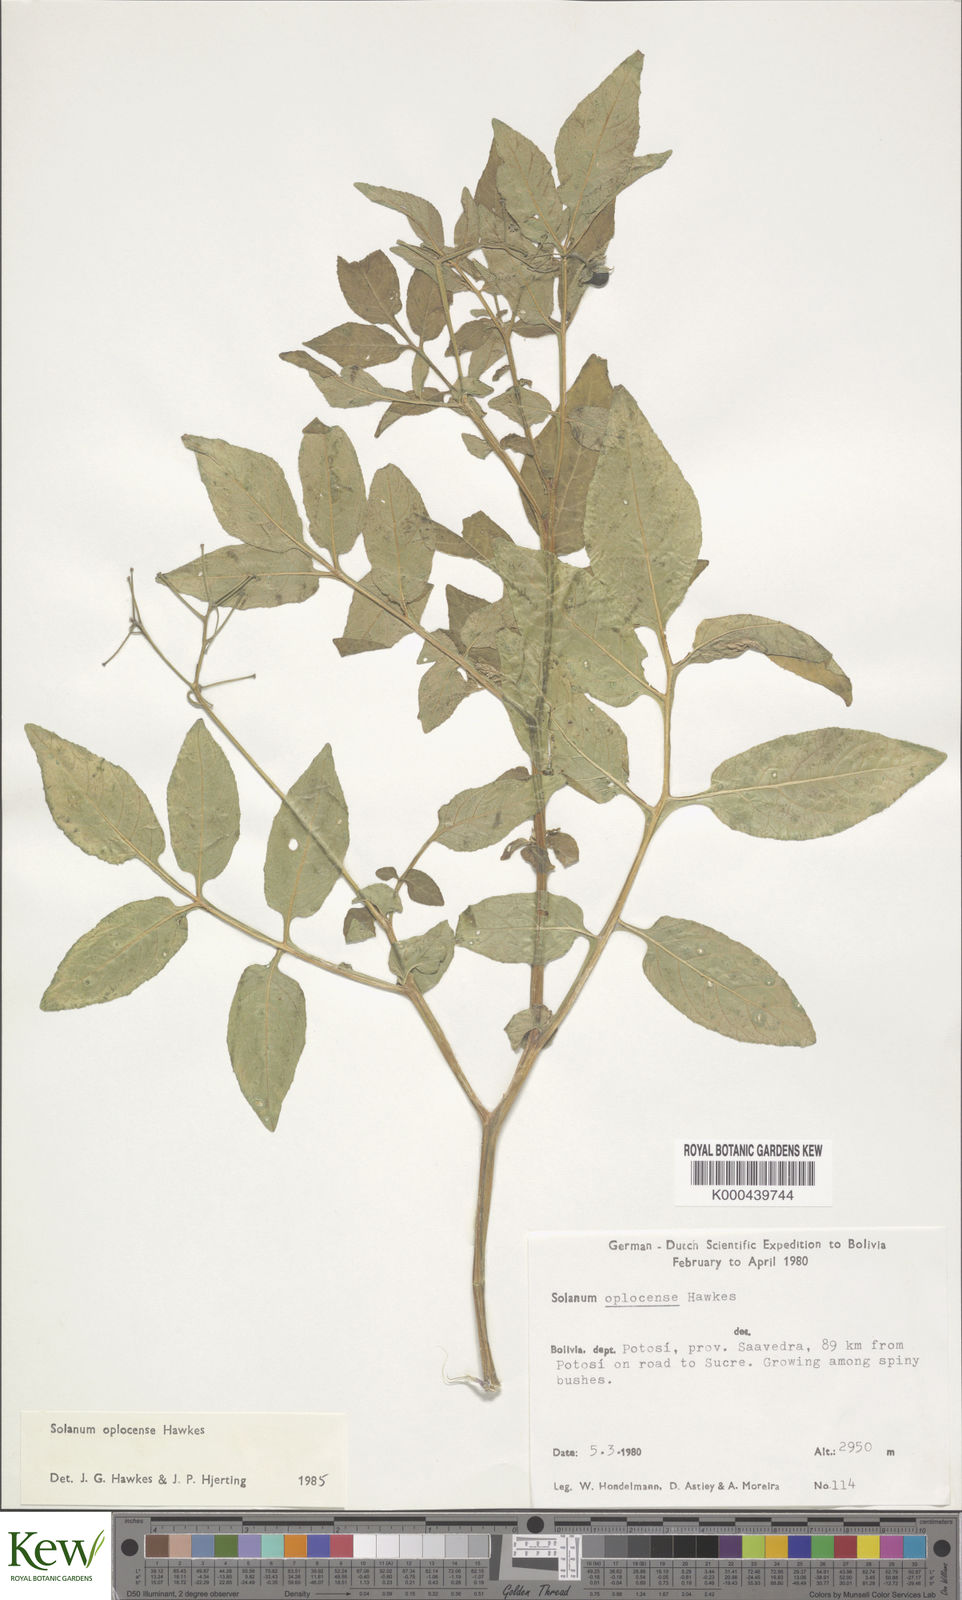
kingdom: Plantae
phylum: Tracheophyta
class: Magnoliopsida
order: Solanales
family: Solanaceae
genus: Solanum
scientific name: Solanum brevicaule
